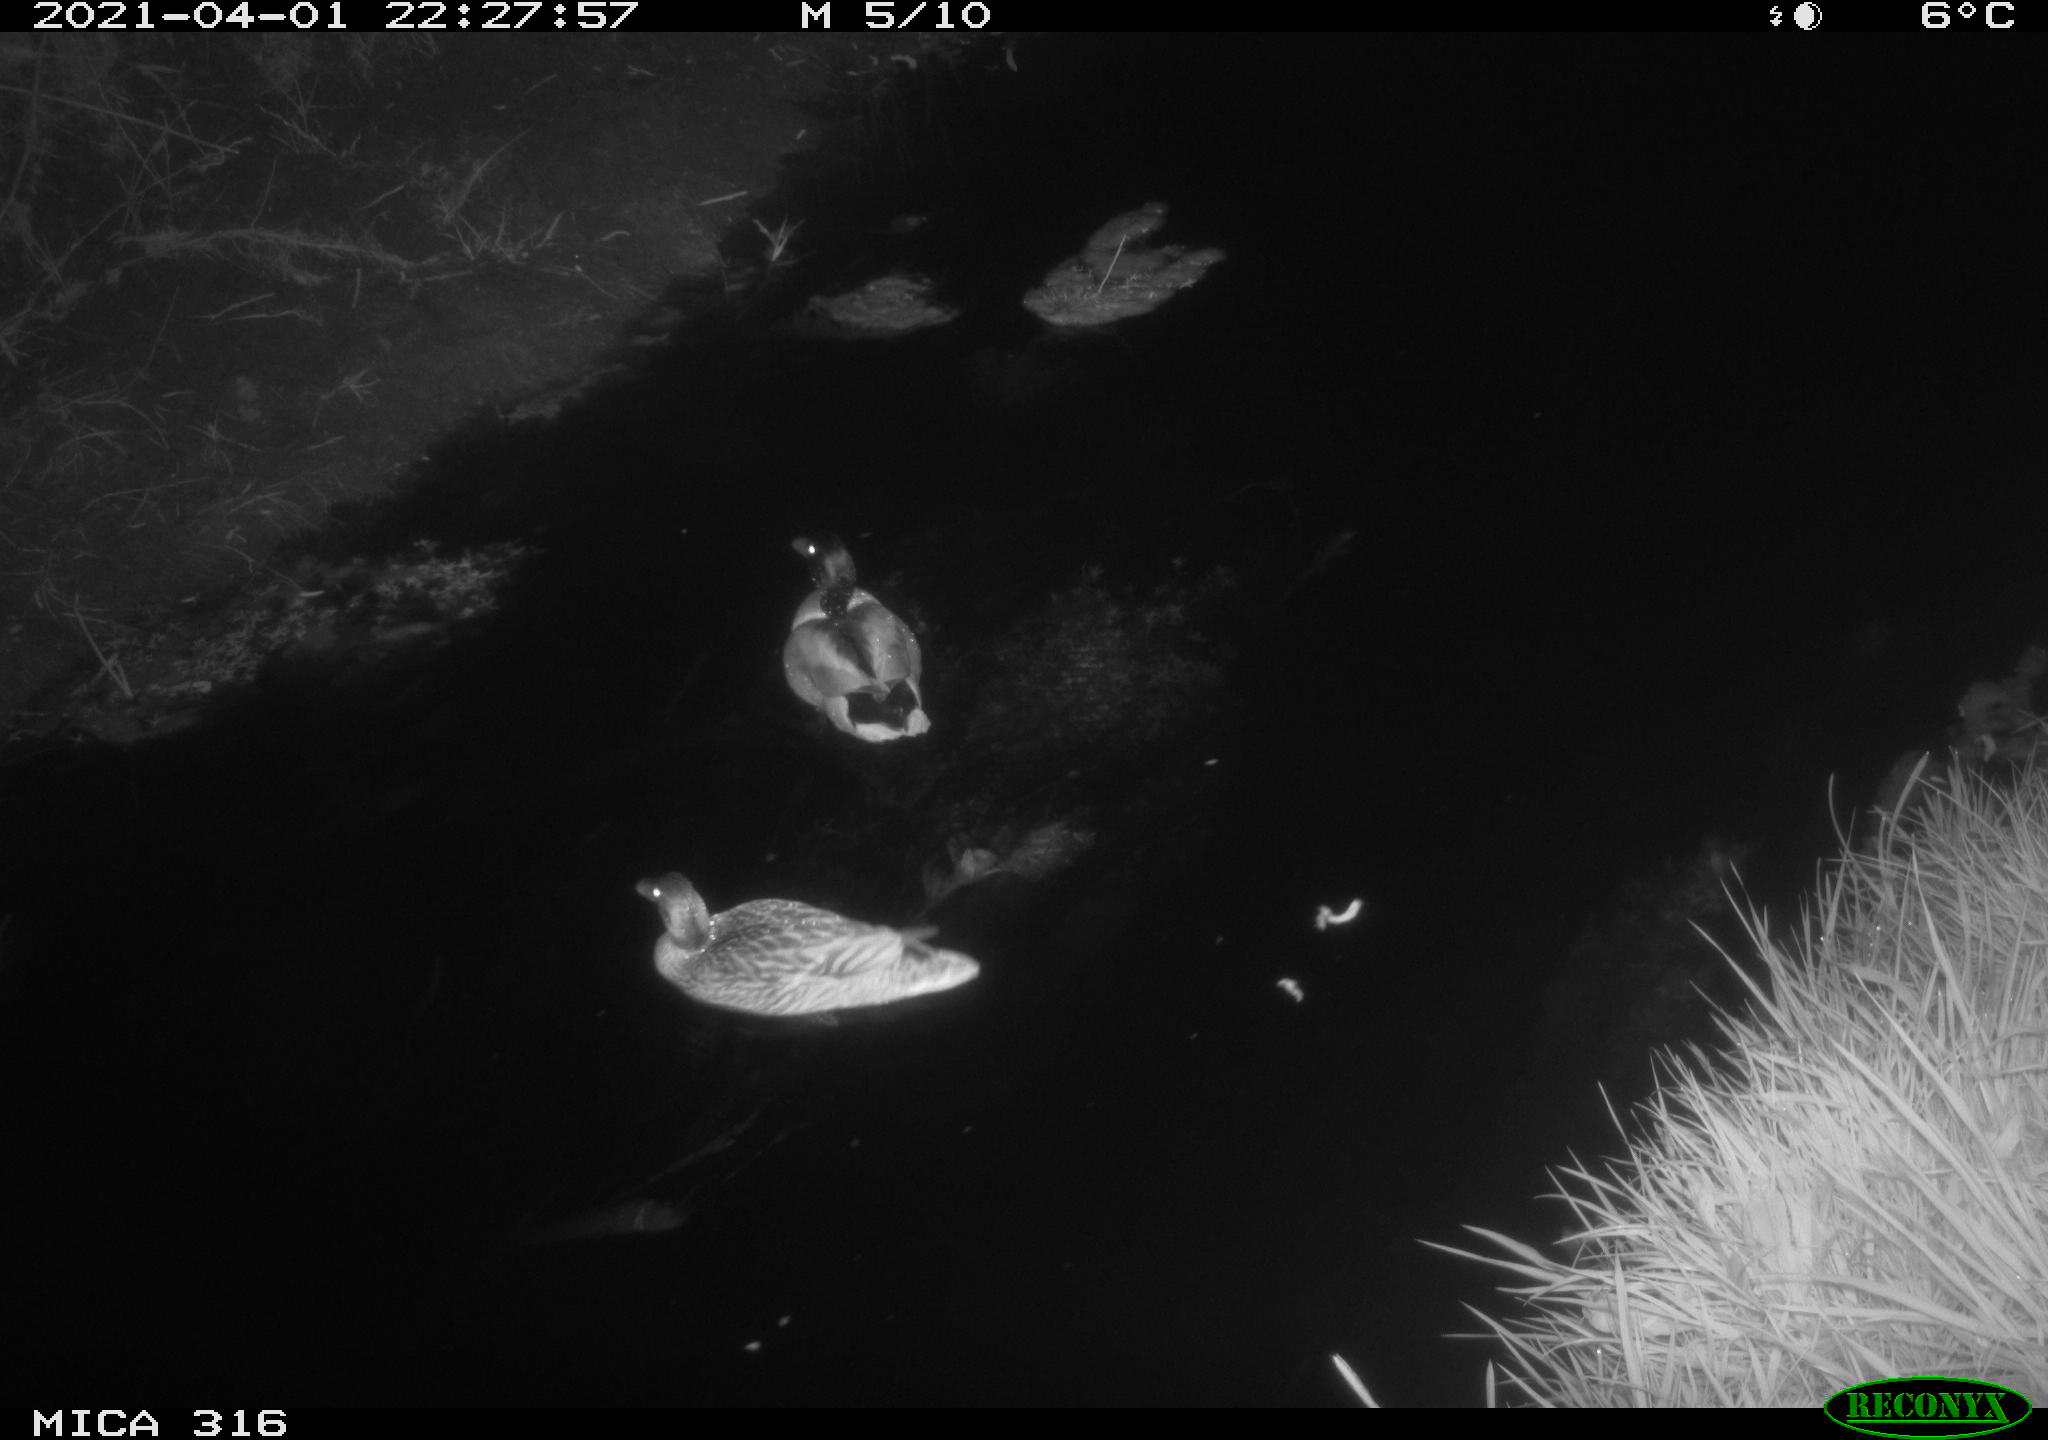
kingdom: Animalia
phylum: Chordata
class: Aves
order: Anseriformes
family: Anatidae
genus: Anas
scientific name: Anas platyrhynchos
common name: Mallard
